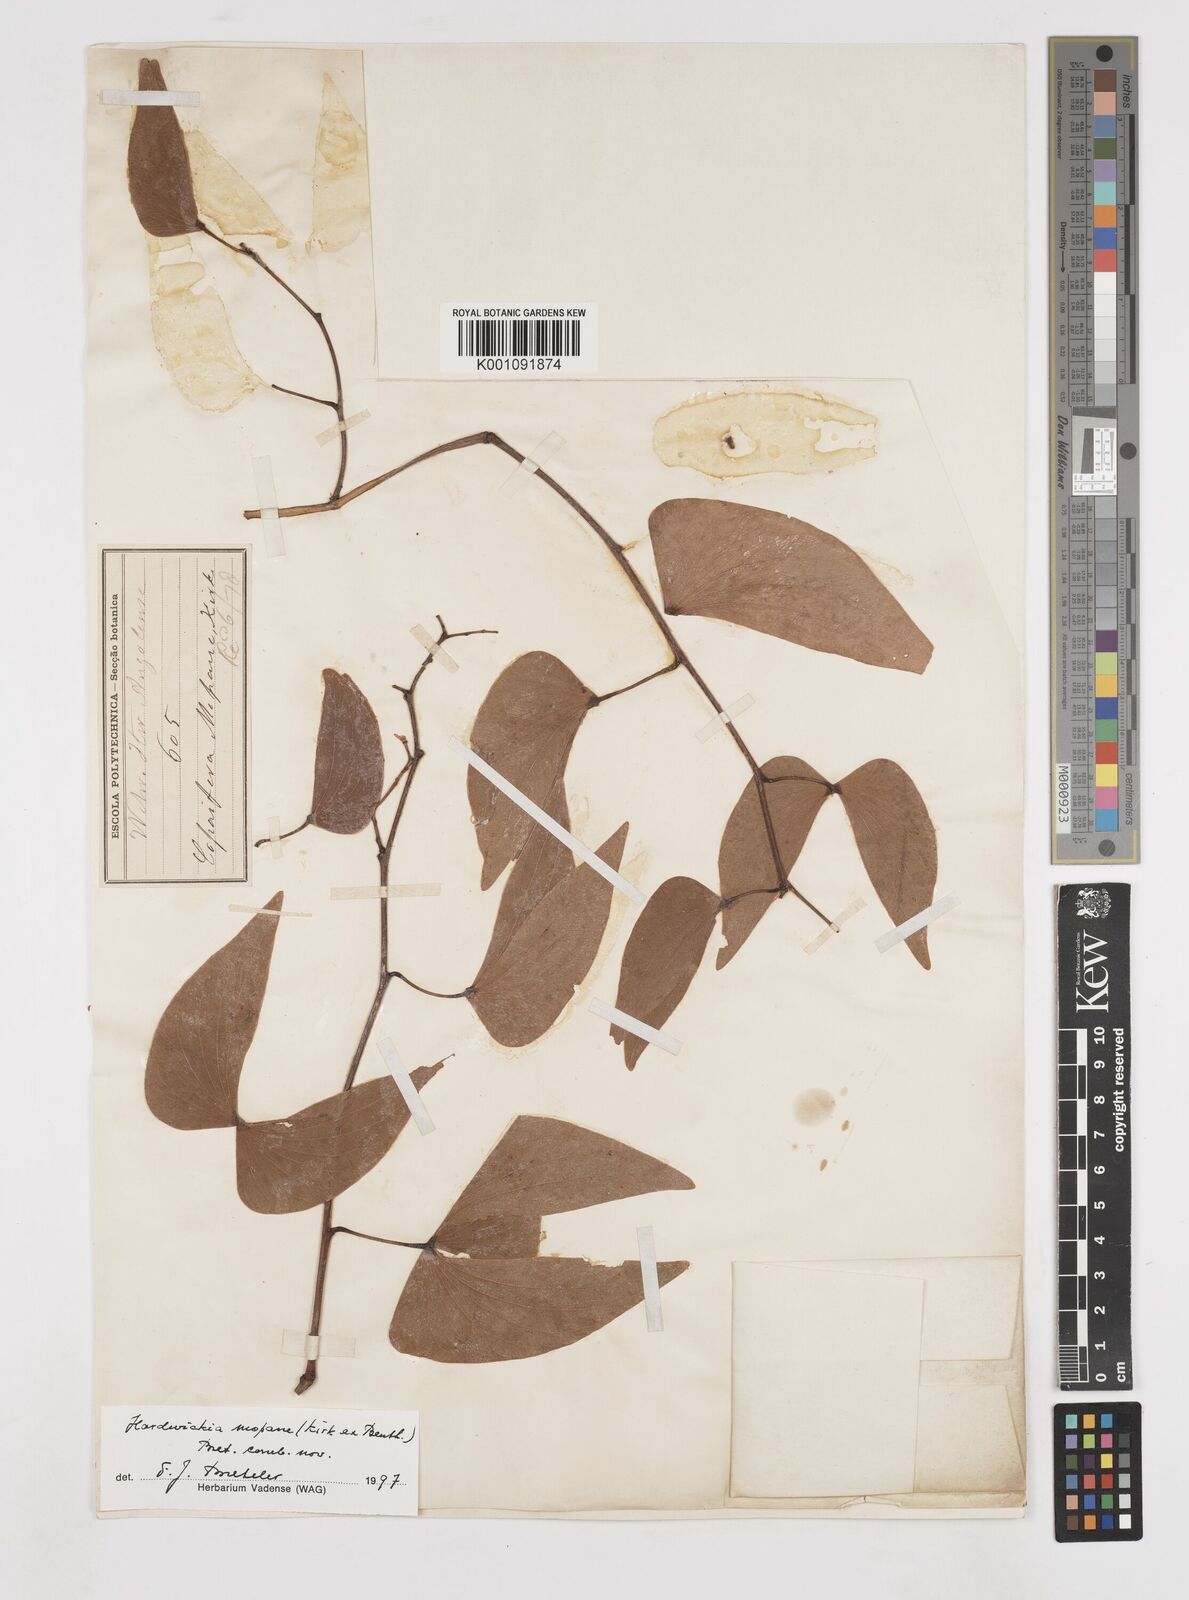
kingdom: Plantae
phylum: Tracheophyta
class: Magnoliopsida
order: Fabales
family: Fabaceae
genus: Colophospermum
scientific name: Colophospermum
